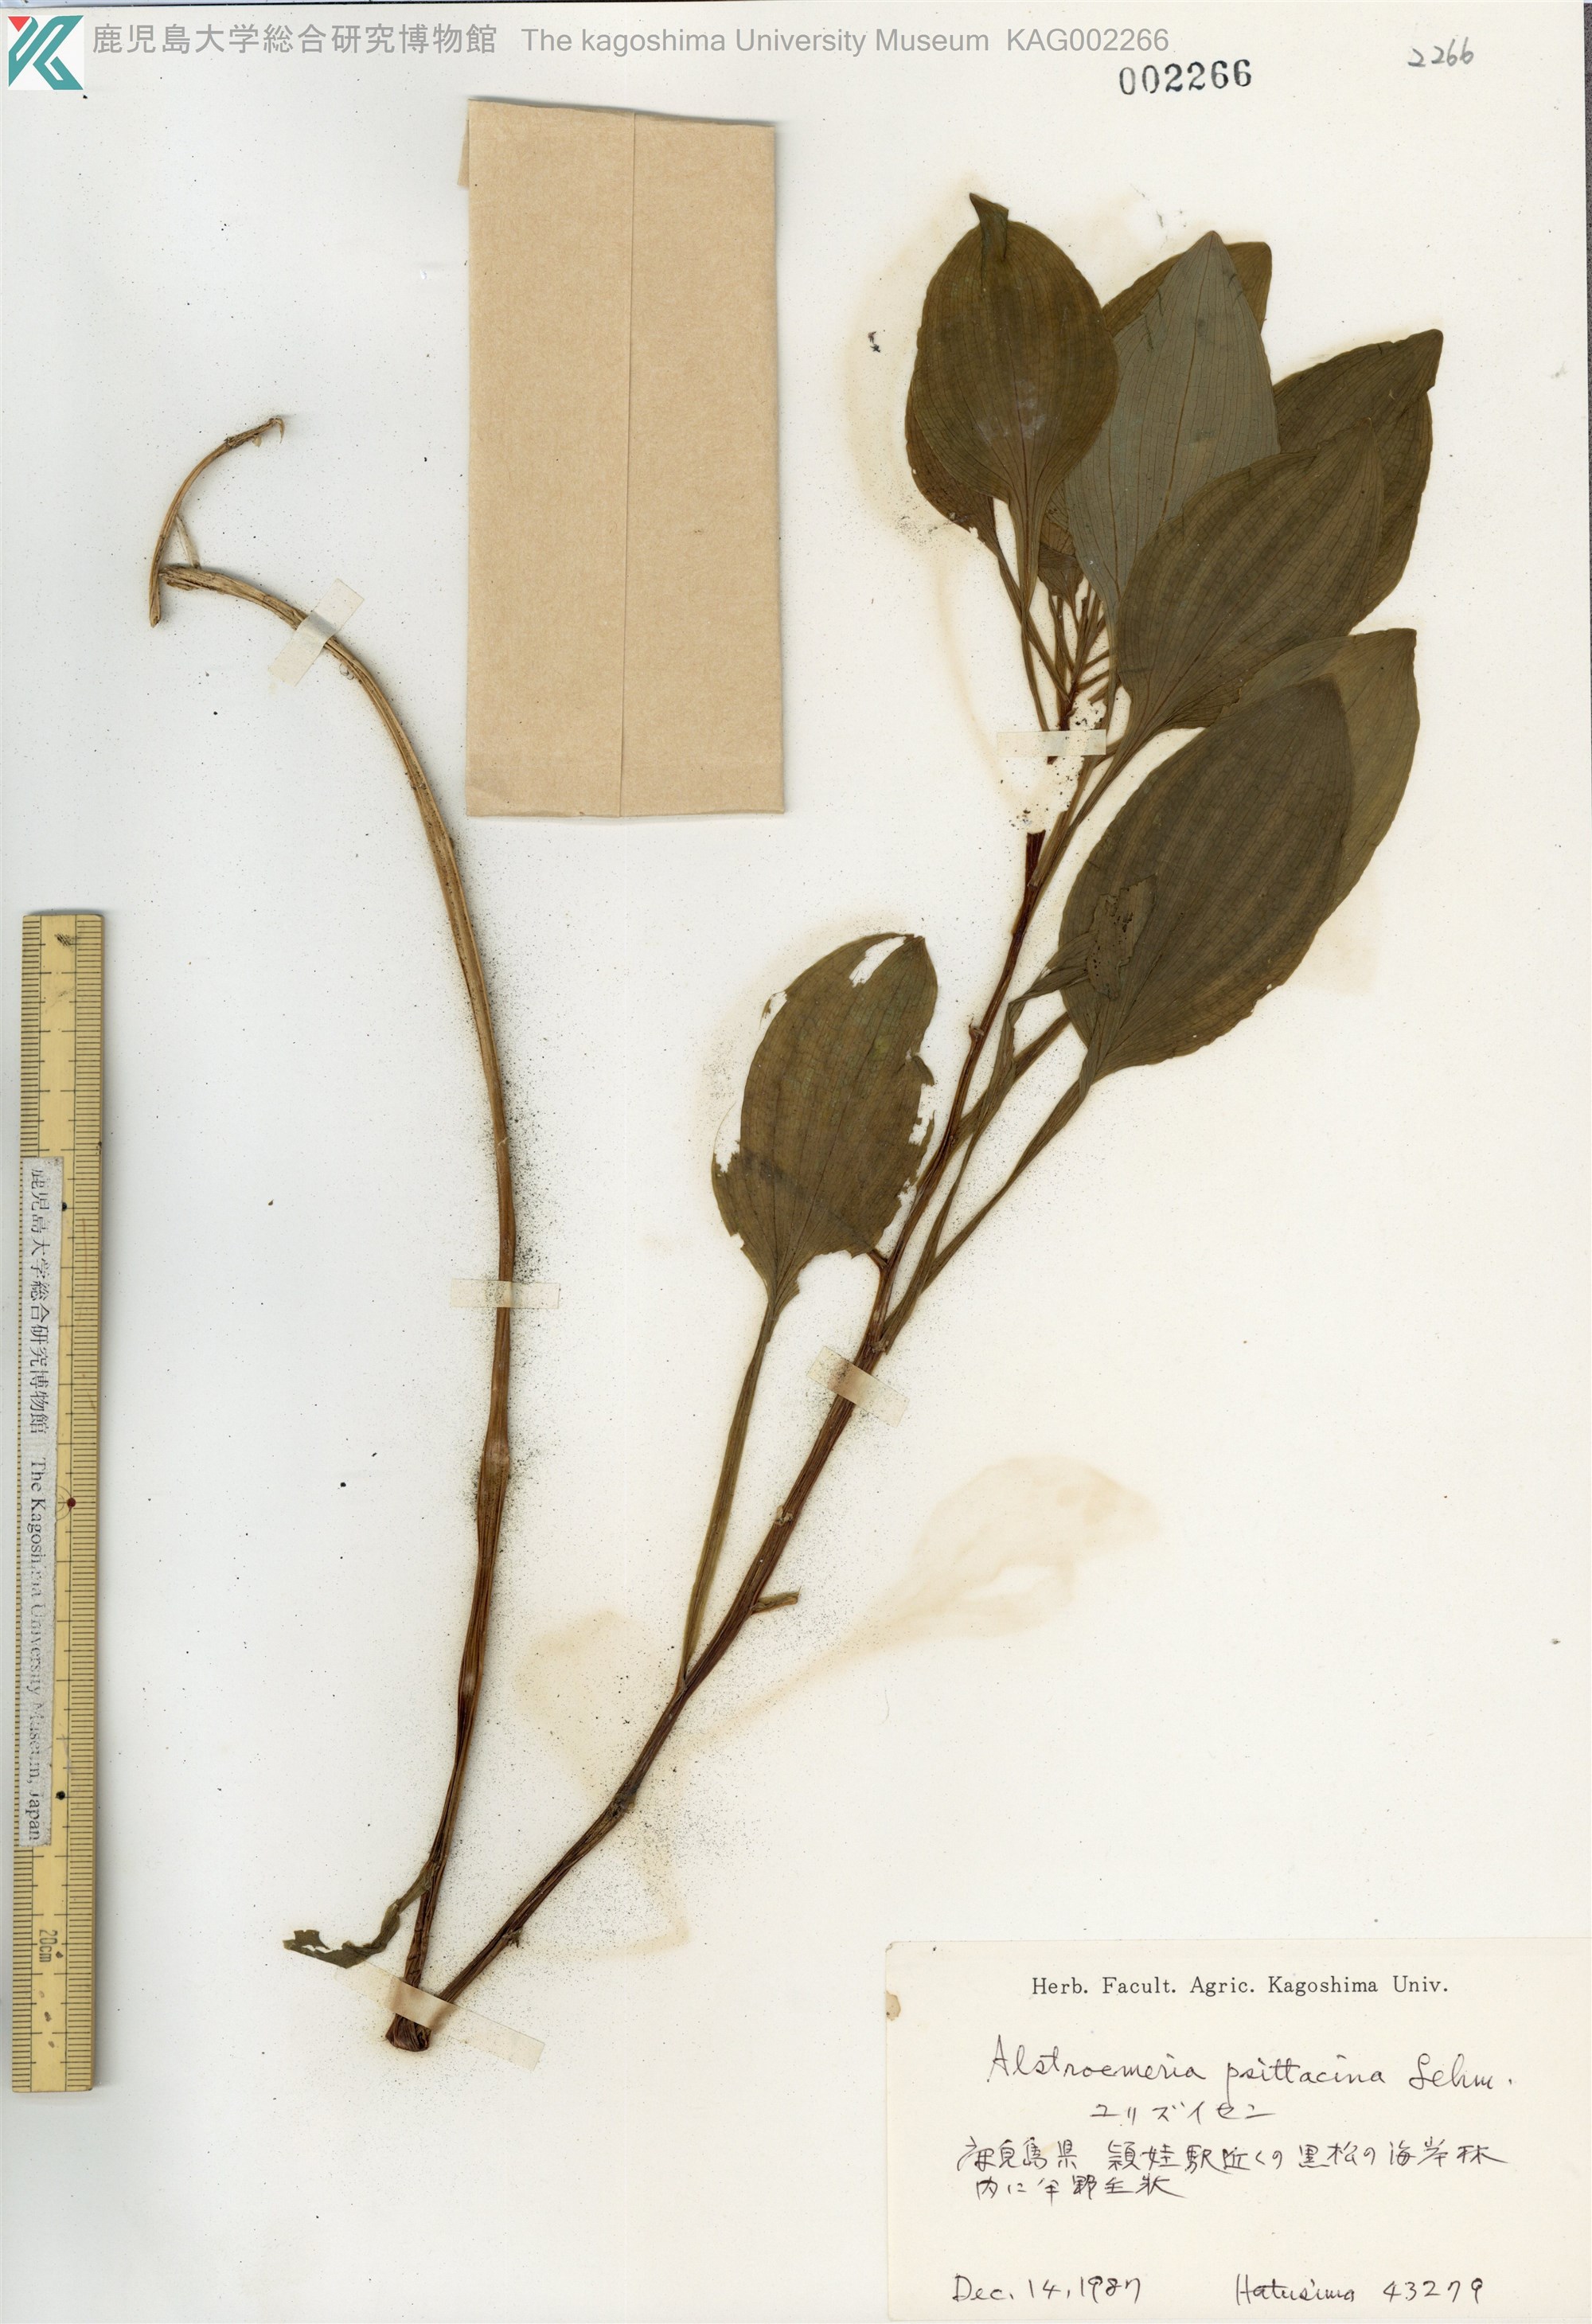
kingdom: Plantae
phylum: Tracheophyta
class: Liliopsida
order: Liliales
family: Alstroemeriaceae
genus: Alstroemeria
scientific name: Alstroemeria psittacina
